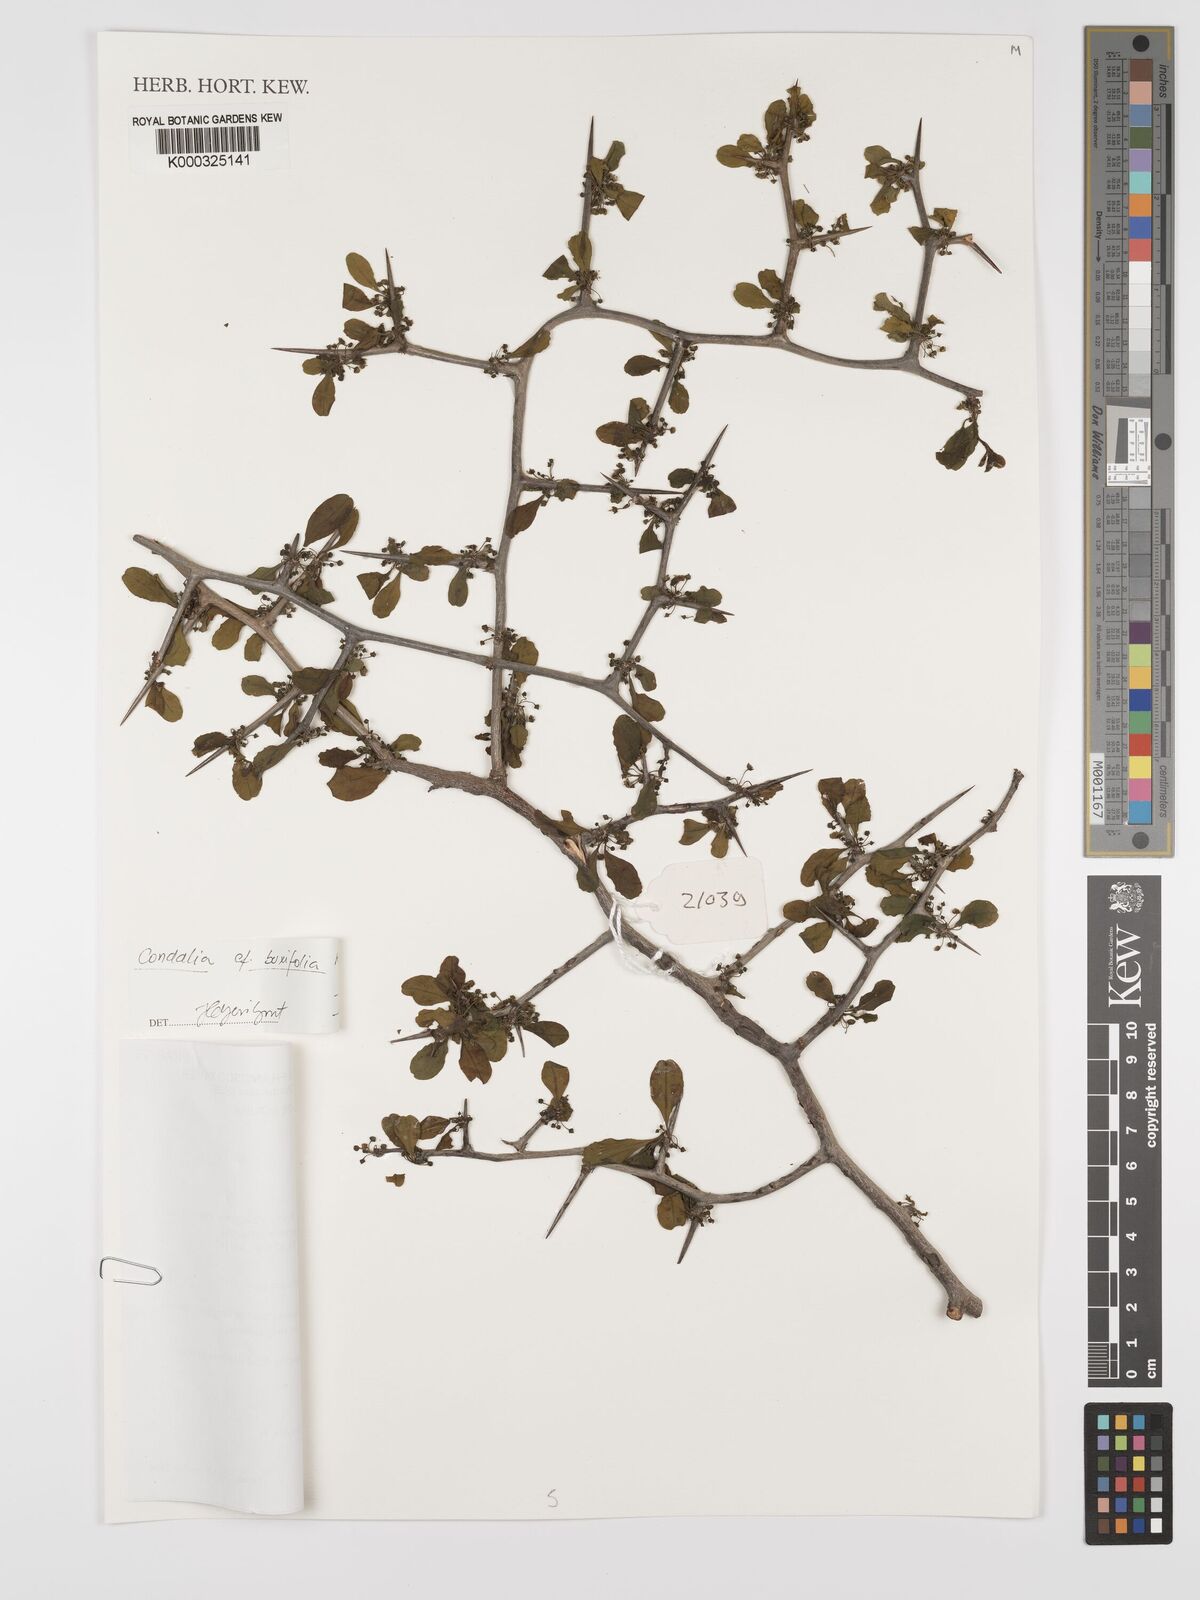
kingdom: Plantae
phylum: Tracheophyta
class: Magnoliopsida
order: Rosales
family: Rhamnaceae
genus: Condalia
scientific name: Condalia buxifolia
